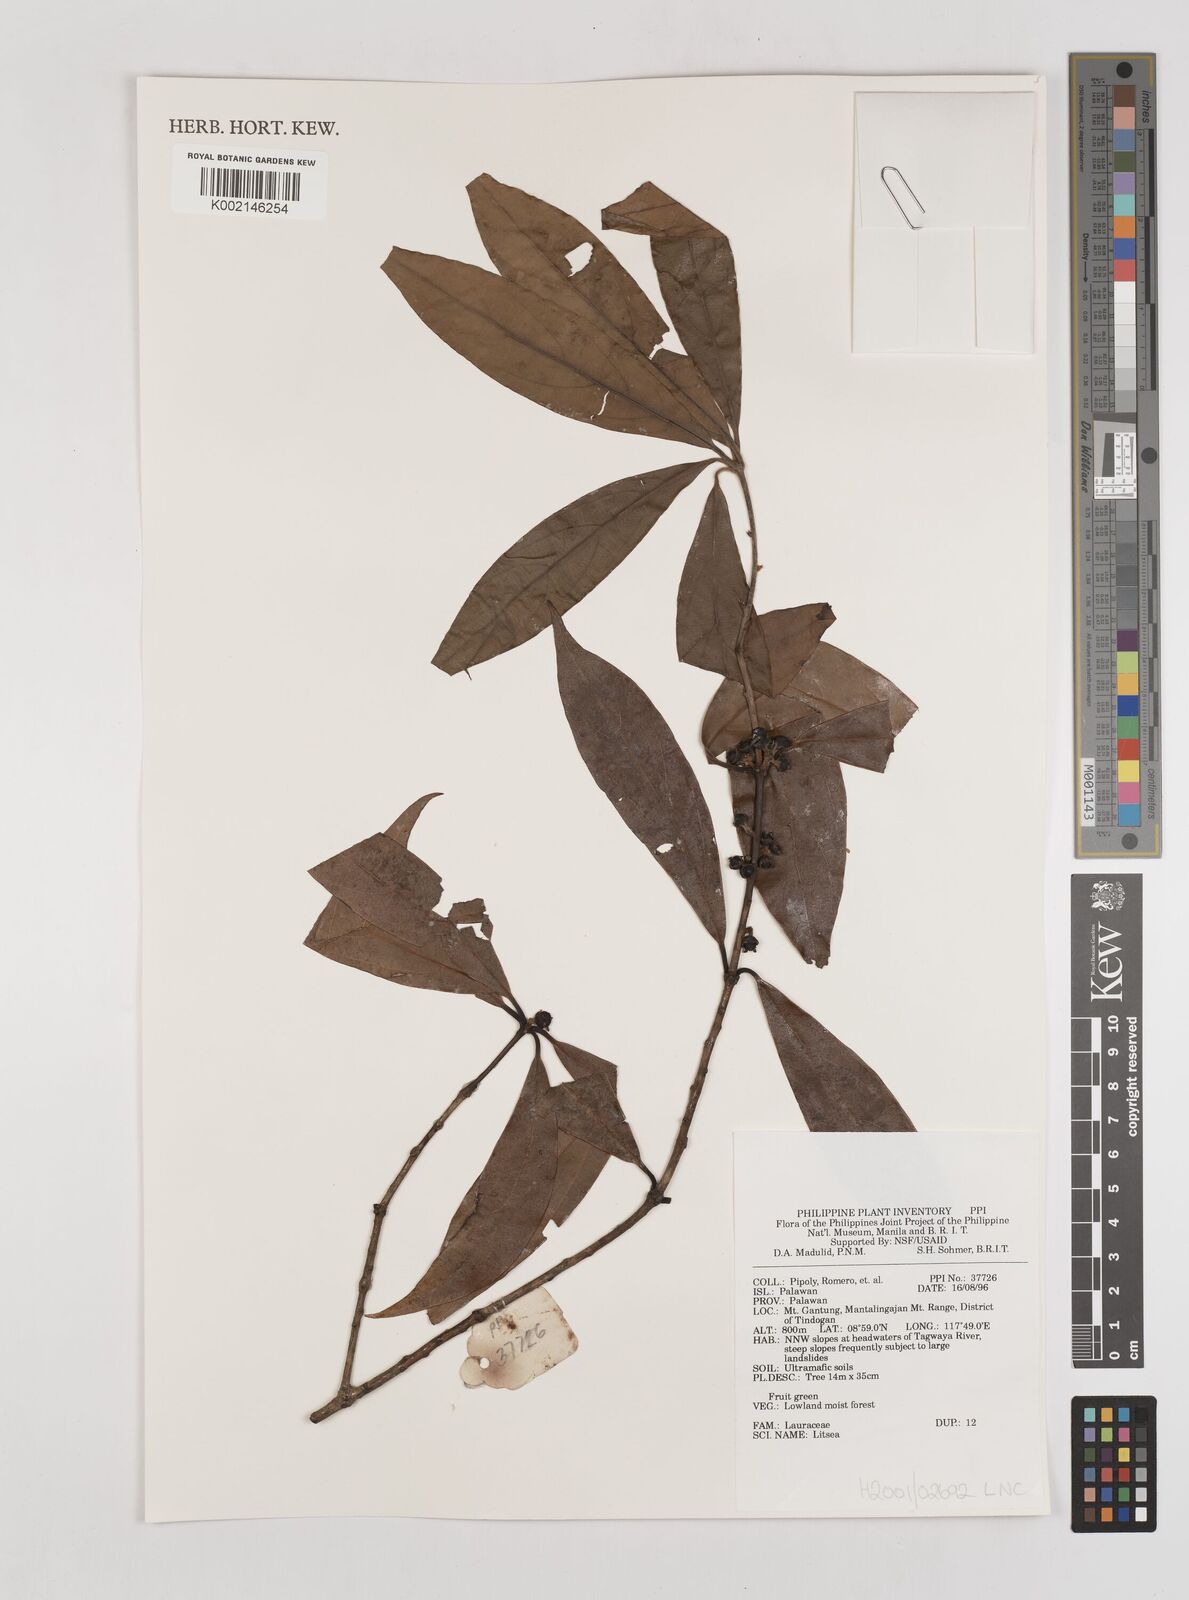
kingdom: Plantae
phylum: Tracheophyta
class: Magnoliopsida
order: Laurales
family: Lauraceae
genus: Litsea
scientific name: Litsea
